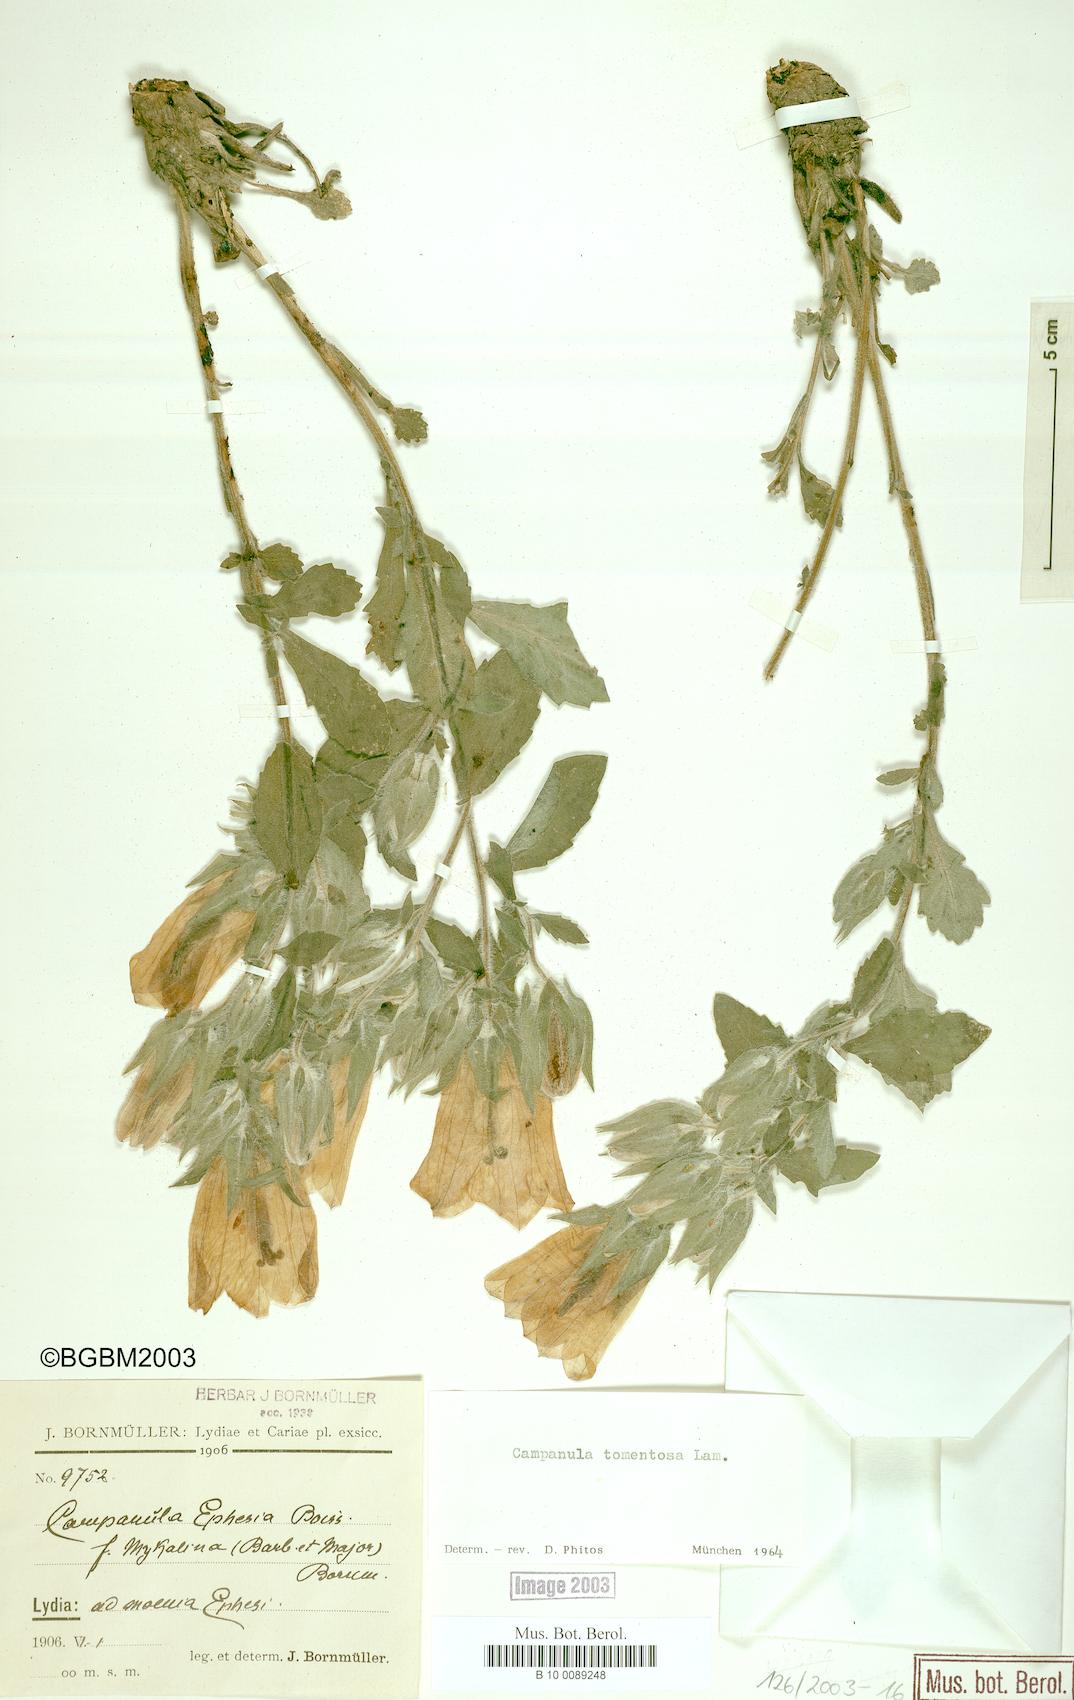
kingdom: Plantae
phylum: Tracheophyta
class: Magnoliopsida
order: Asterales
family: Campanulaceae
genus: Campanula
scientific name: Campanula tomentosa
